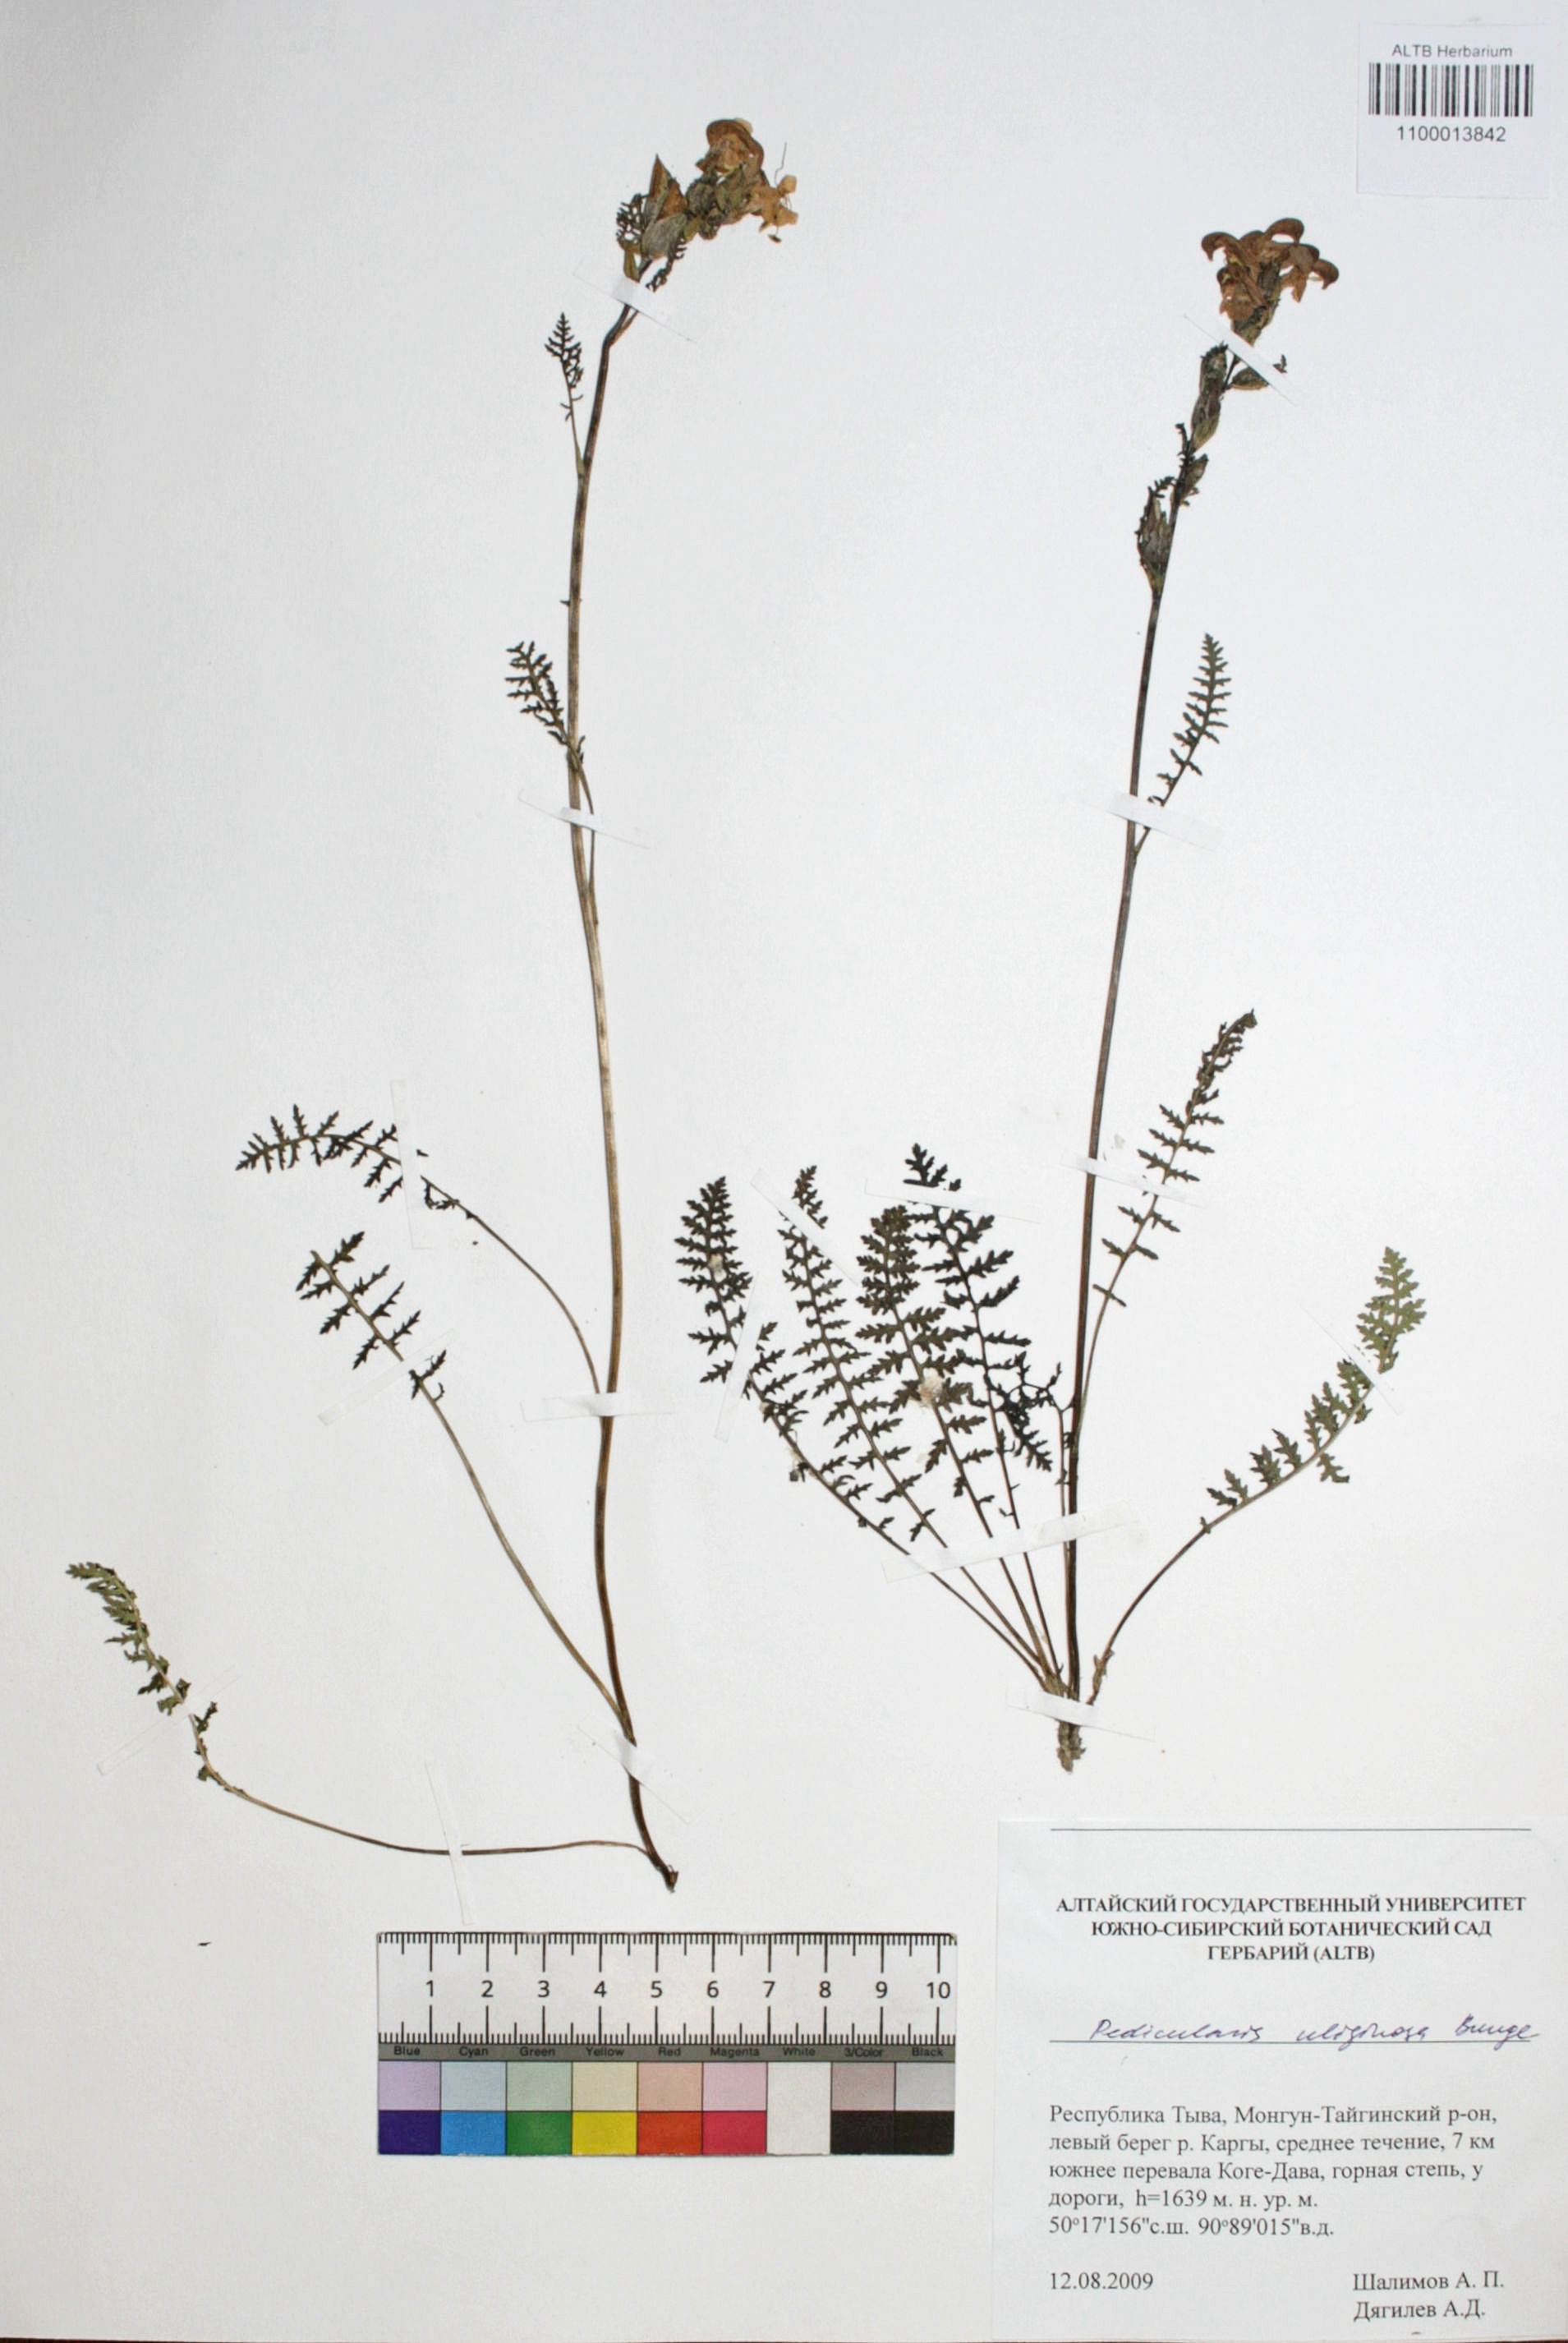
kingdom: Plantae
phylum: Tracheophyta
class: Magnoliopsida
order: Lamiales
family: Orobanchaceae
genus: Pedicularis
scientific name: Pedicularis uliginosa
